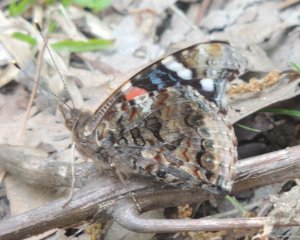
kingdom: Animalia
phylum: Arthropoda
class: Insecta
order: Lepidoptera
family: Nymphalidae
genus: Vanessa
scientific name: Vanessa atalanta
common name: Red Admiral
